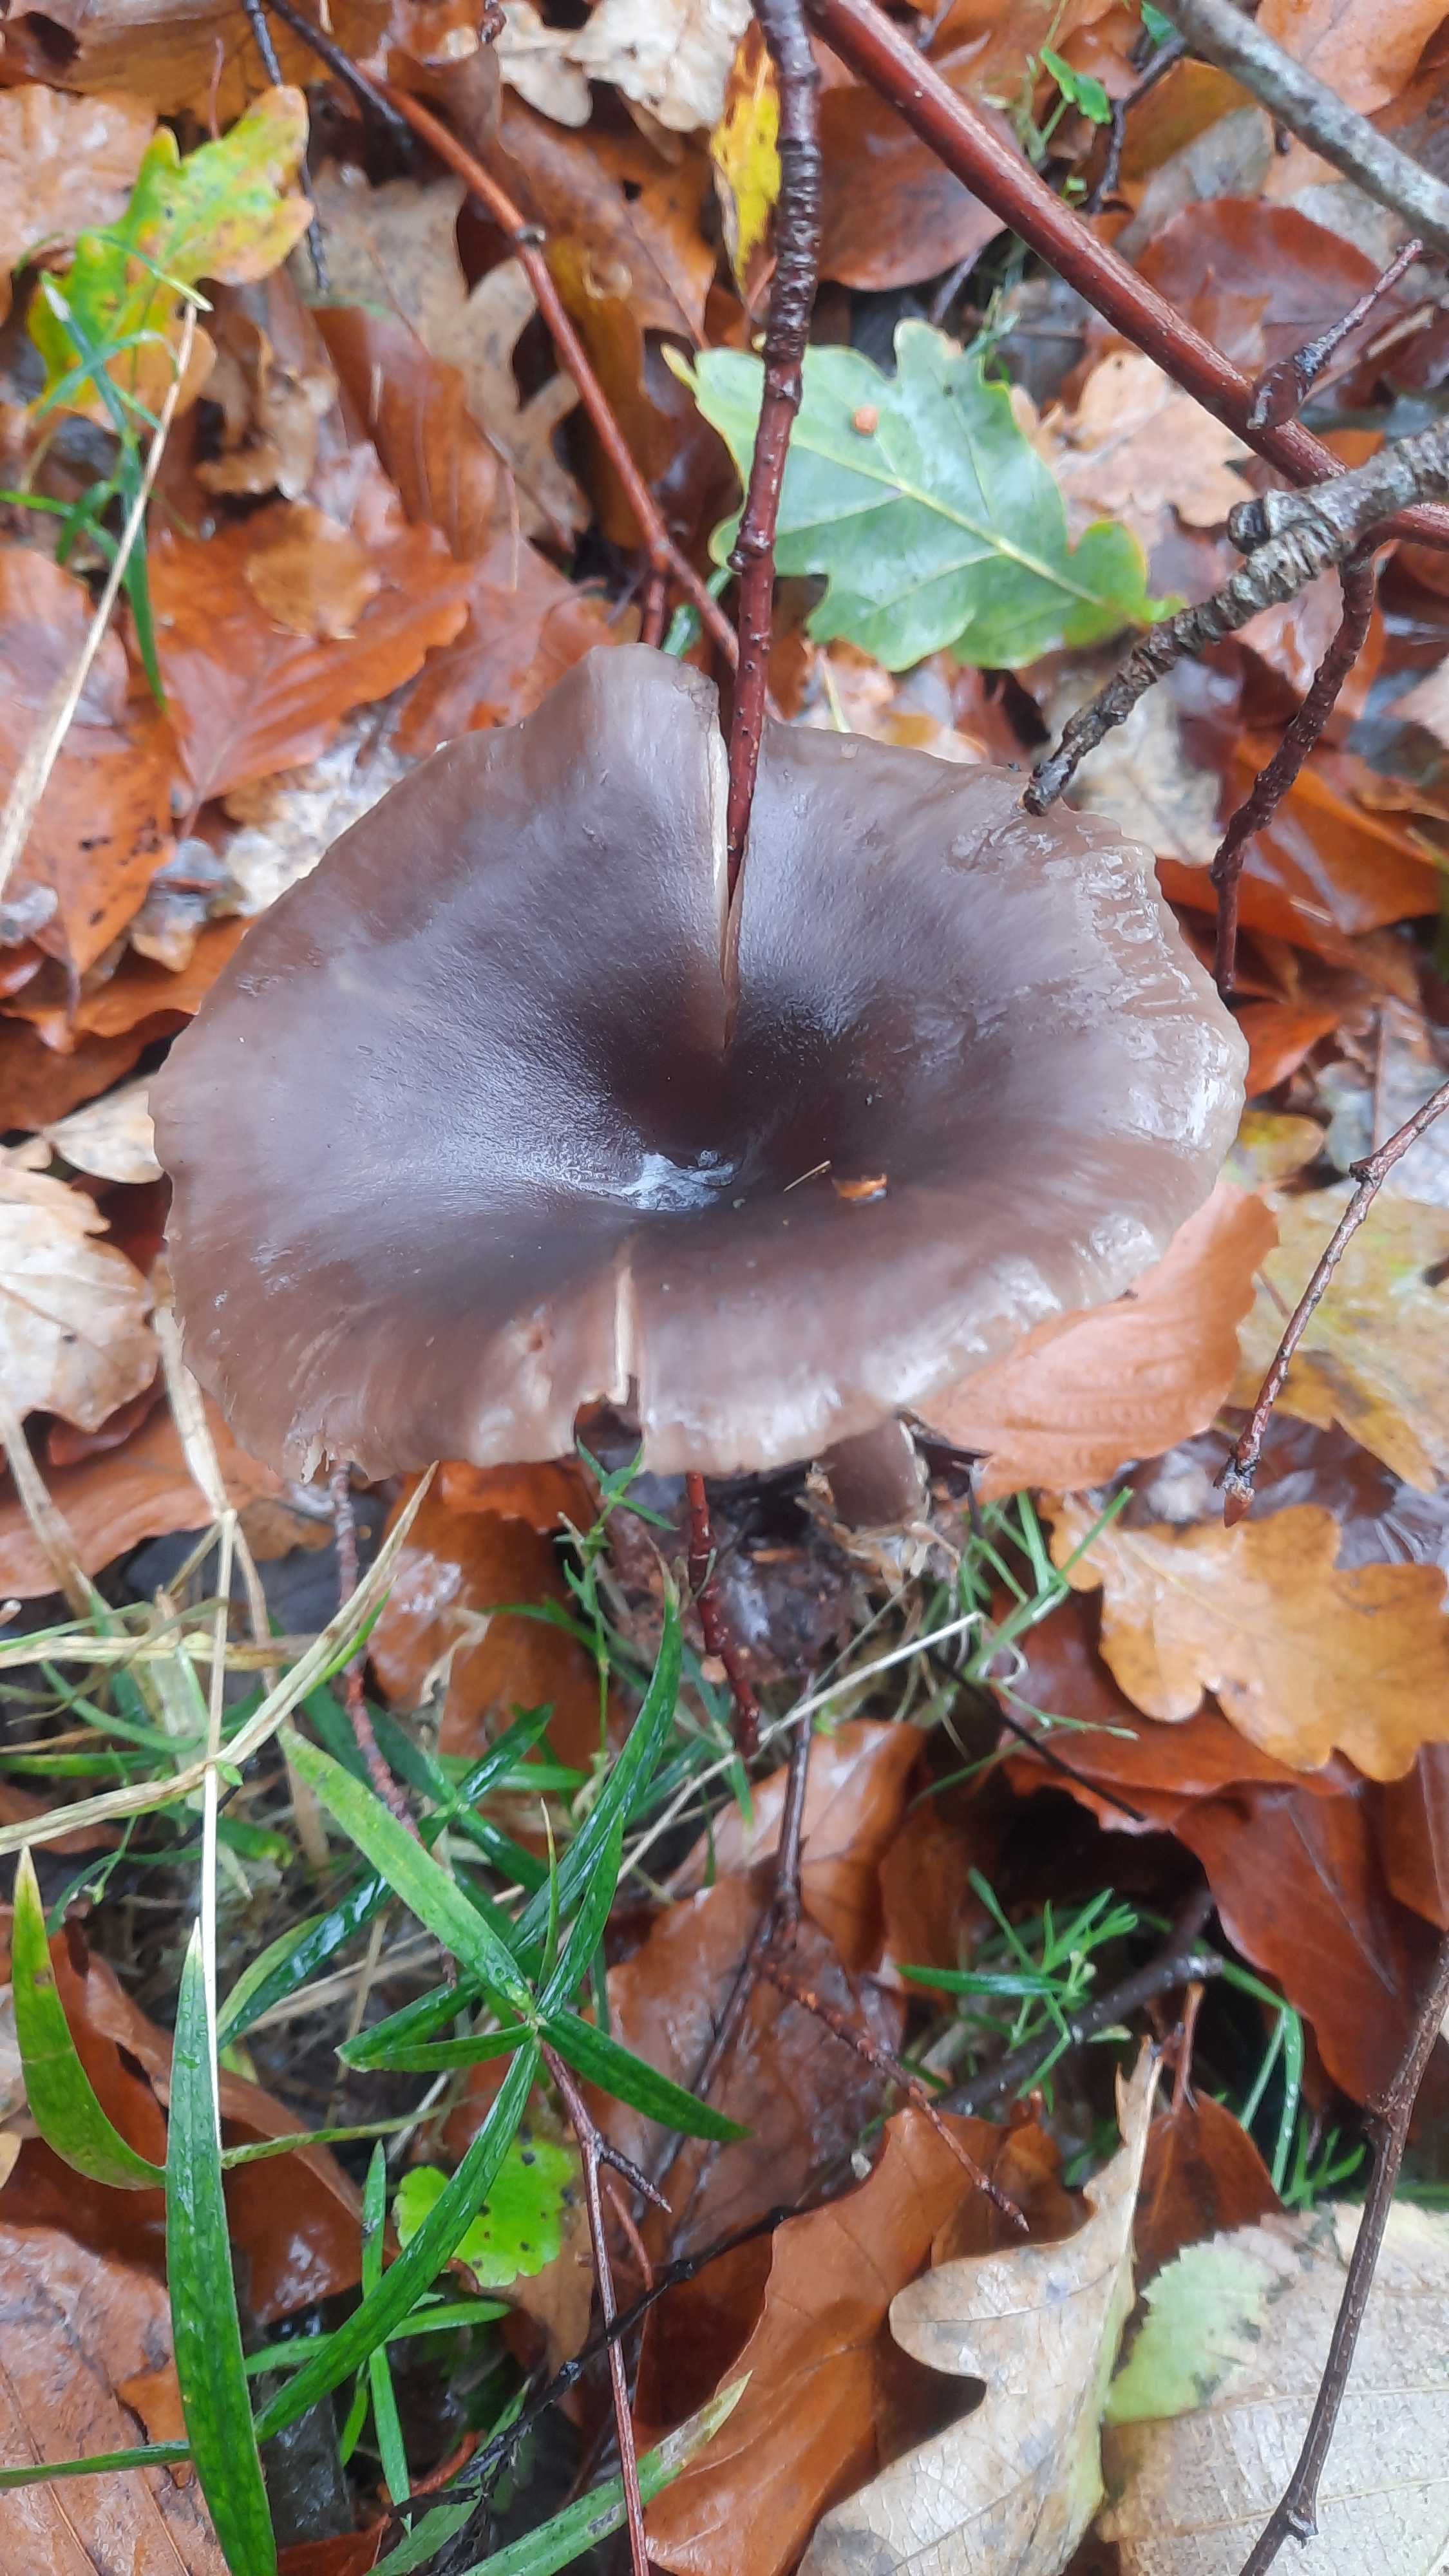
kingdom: Fungi
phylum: Basidiomycota
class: Agaricomycetes
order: Agaricales
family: Pseudoclitocybaceae
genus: Pseudoclitocybe
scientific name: Pseudoclitocybe cyathiformis
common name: almindelig bægertragthat
